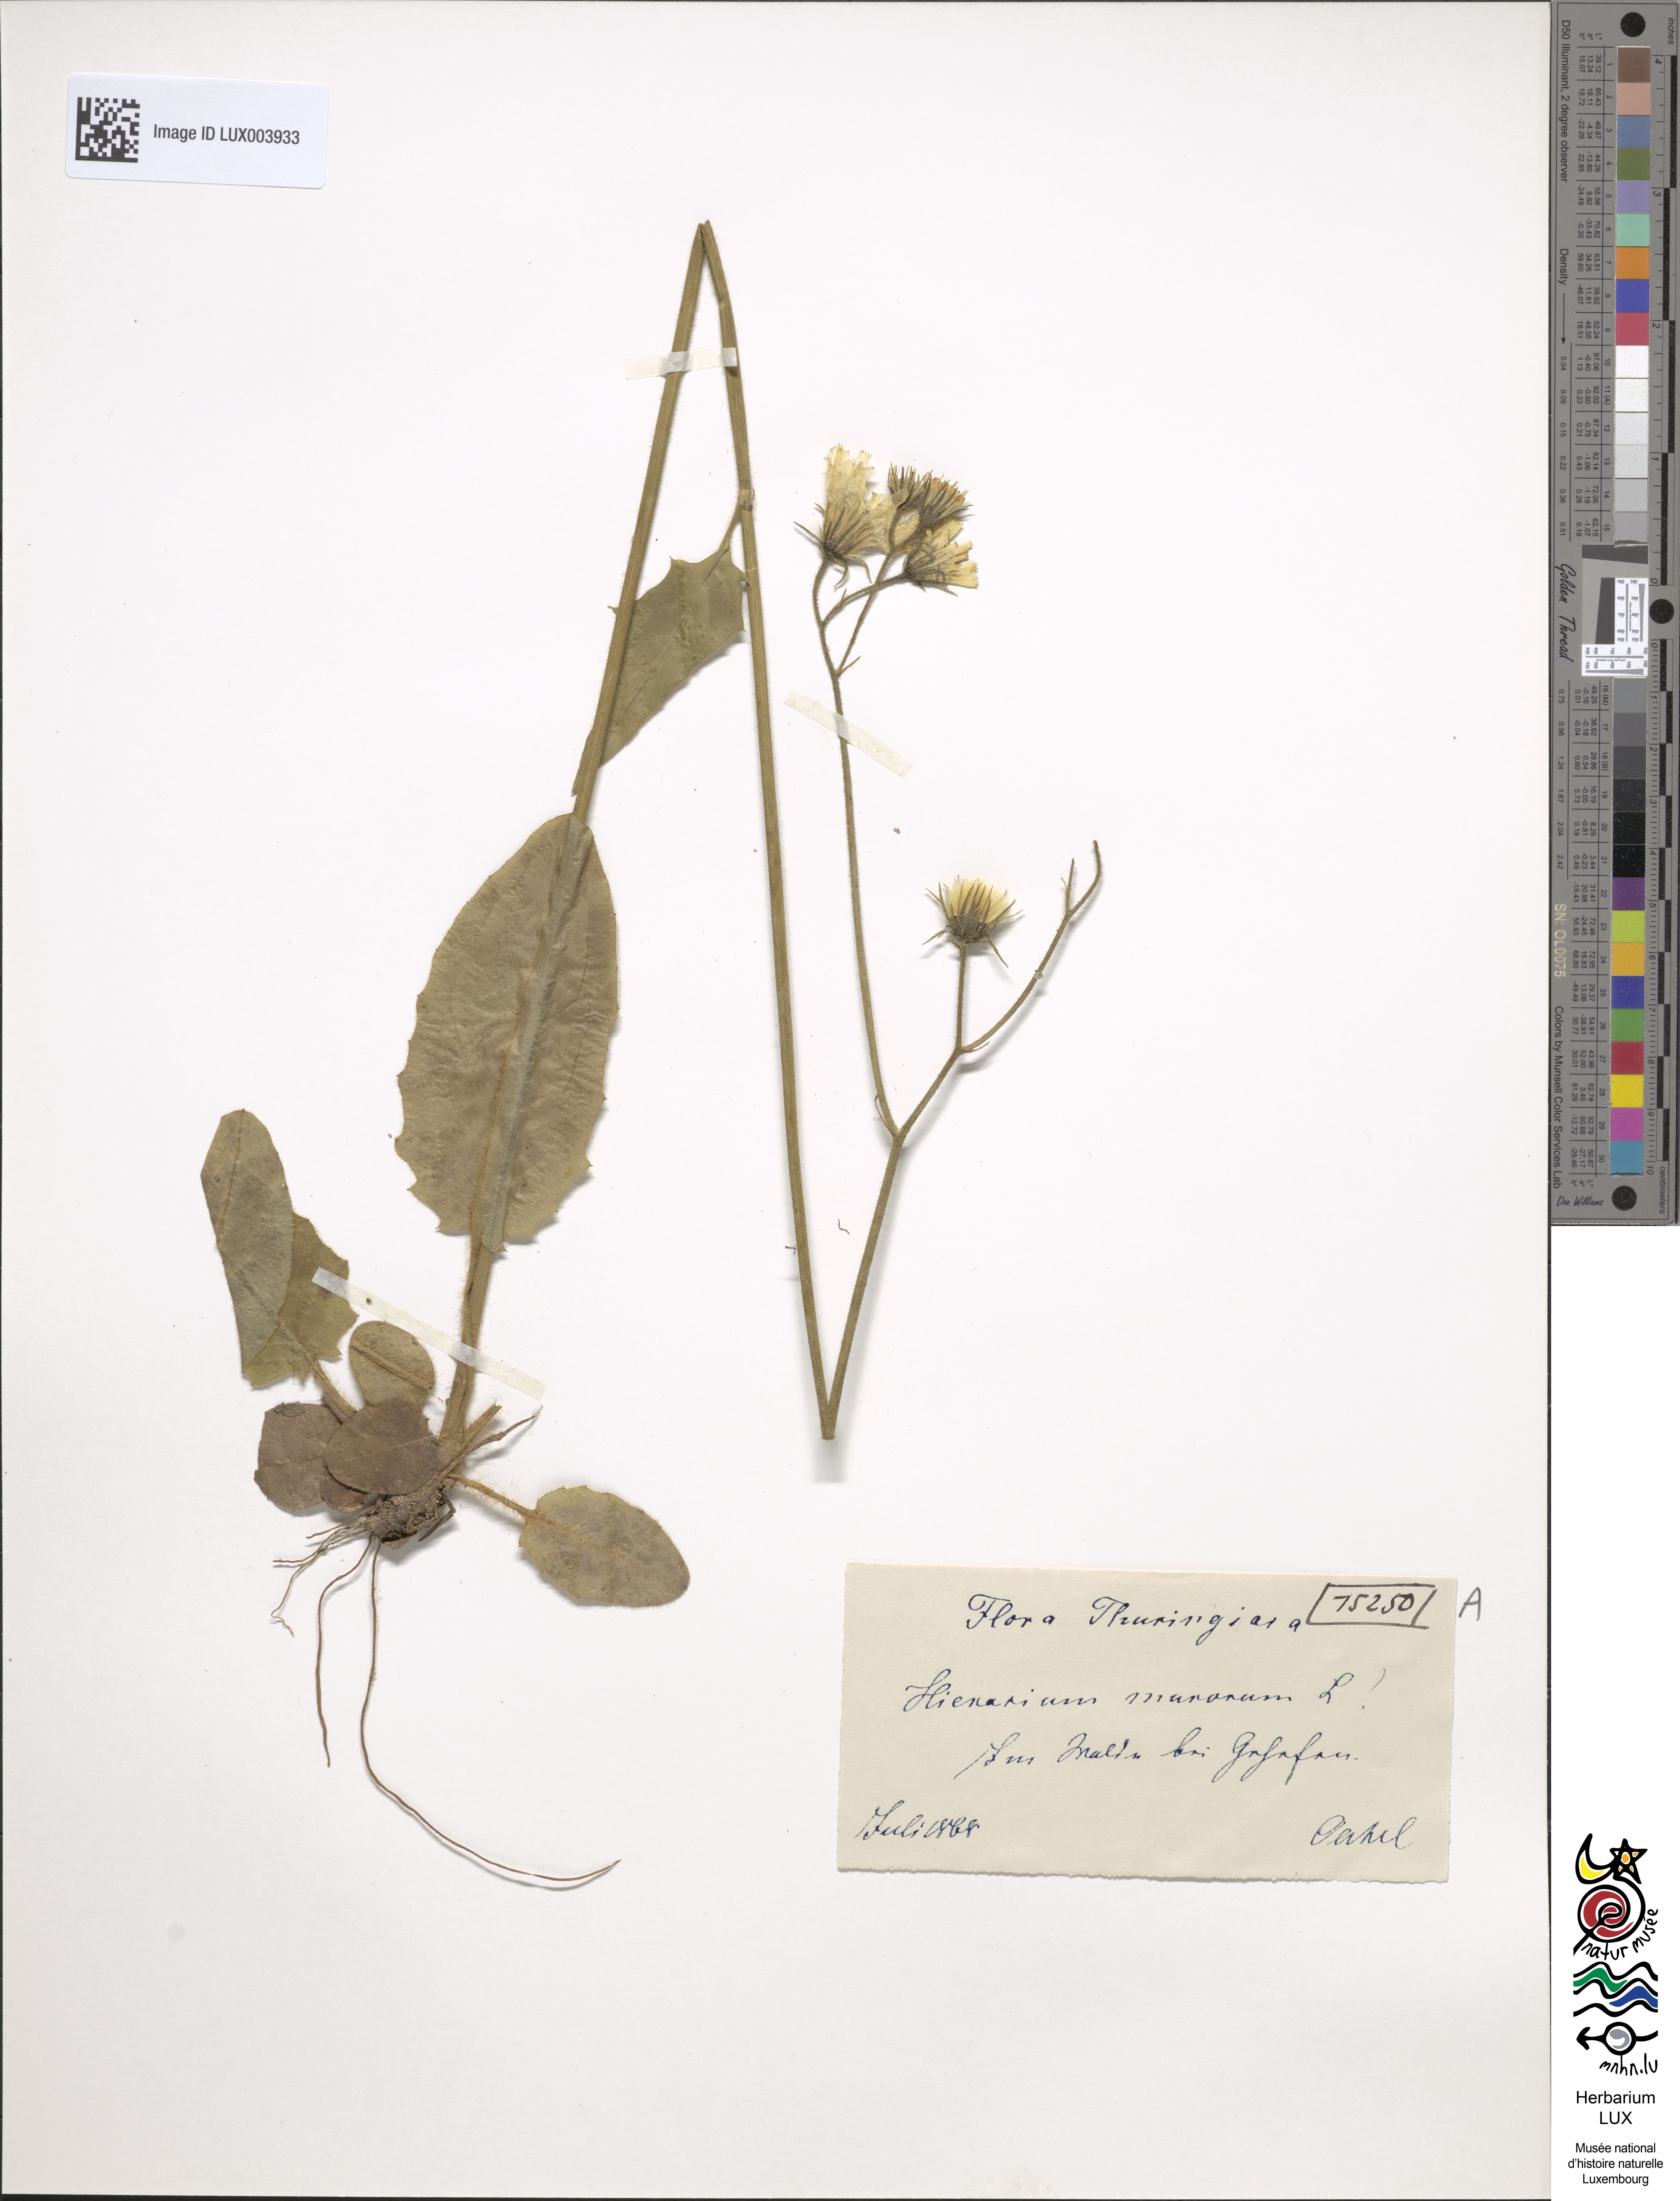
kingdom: Plantae
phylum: Tracheophyta
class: Magnoliopsida
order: Asterales
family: Asteraceae
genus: Hieracium
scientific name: Hieracium murorum
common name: Wall hawkweed
